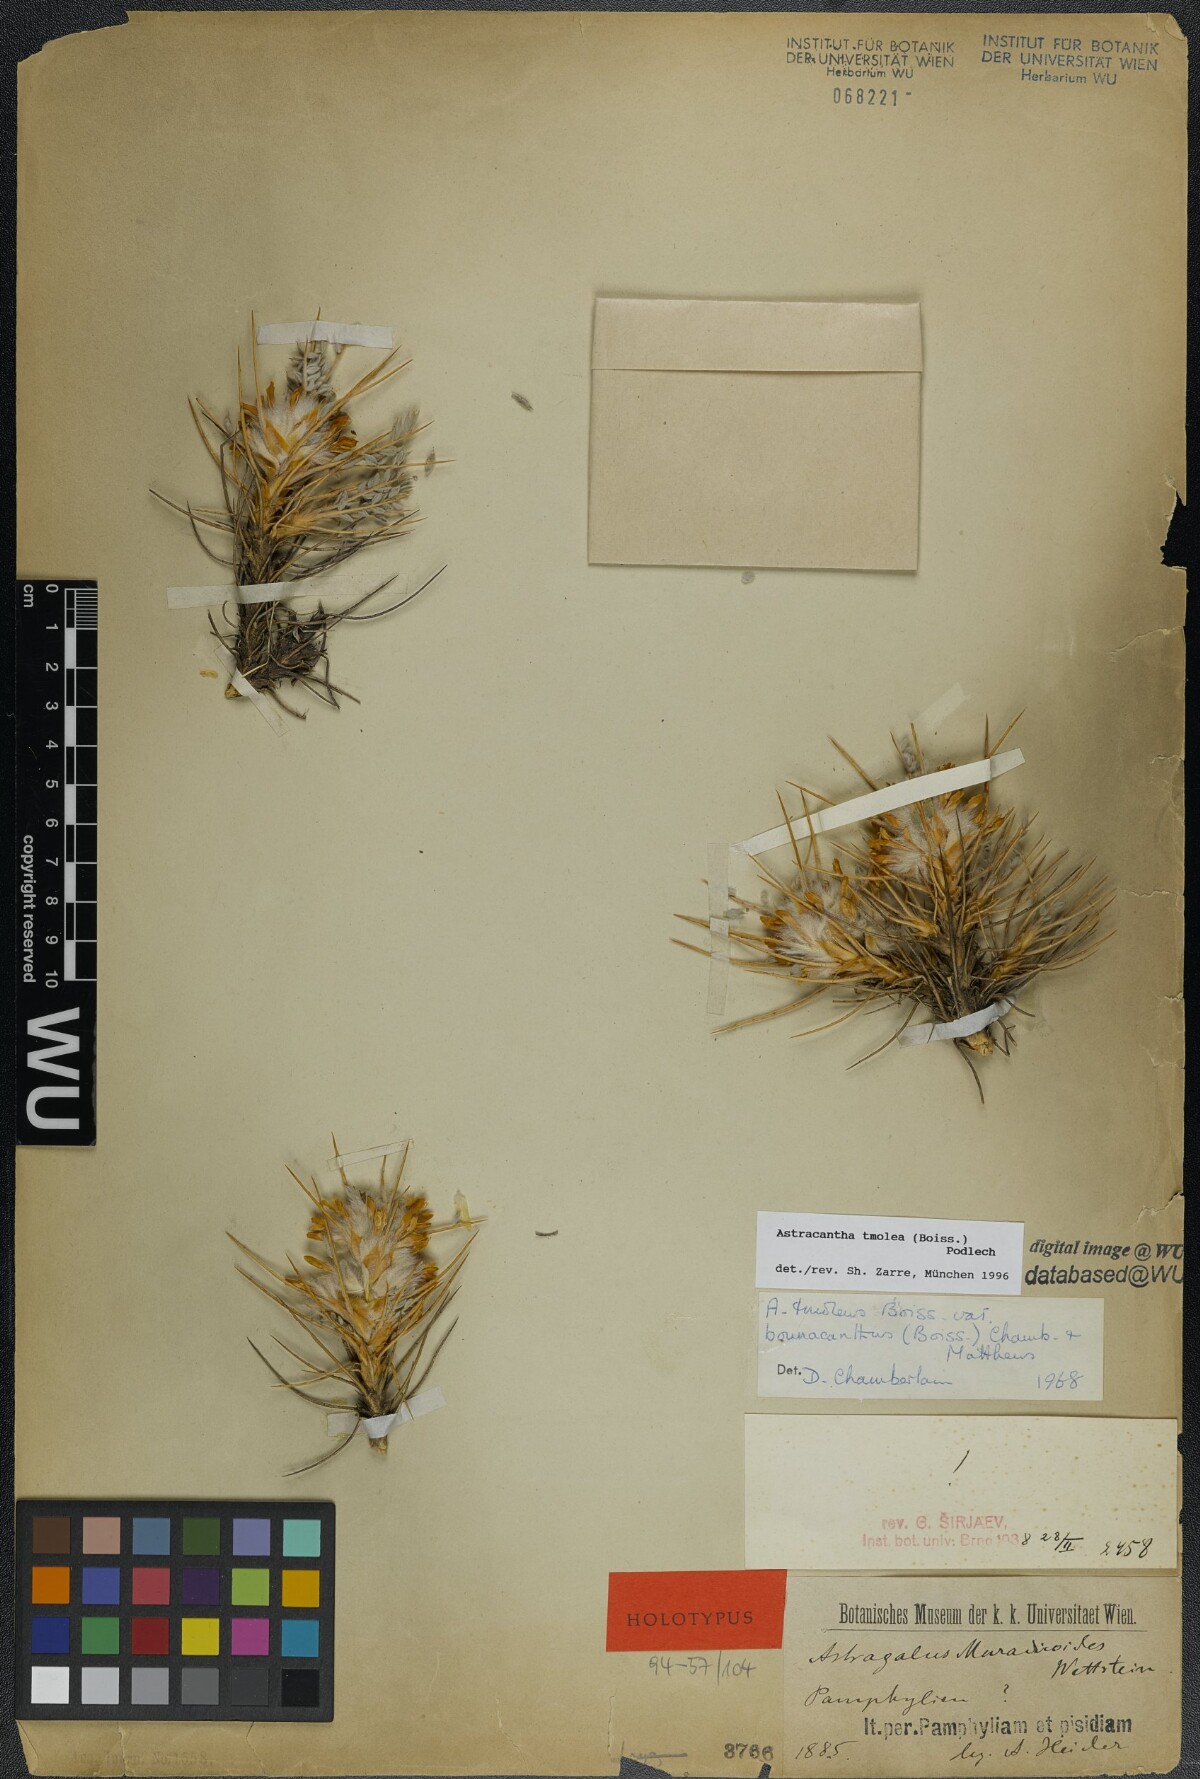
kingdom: Plantae
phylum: Tracheophyta
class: Magnoliopsida
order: Fabales
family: Fabaceae
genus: Astragalus
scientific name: Astragalus tmoleus
